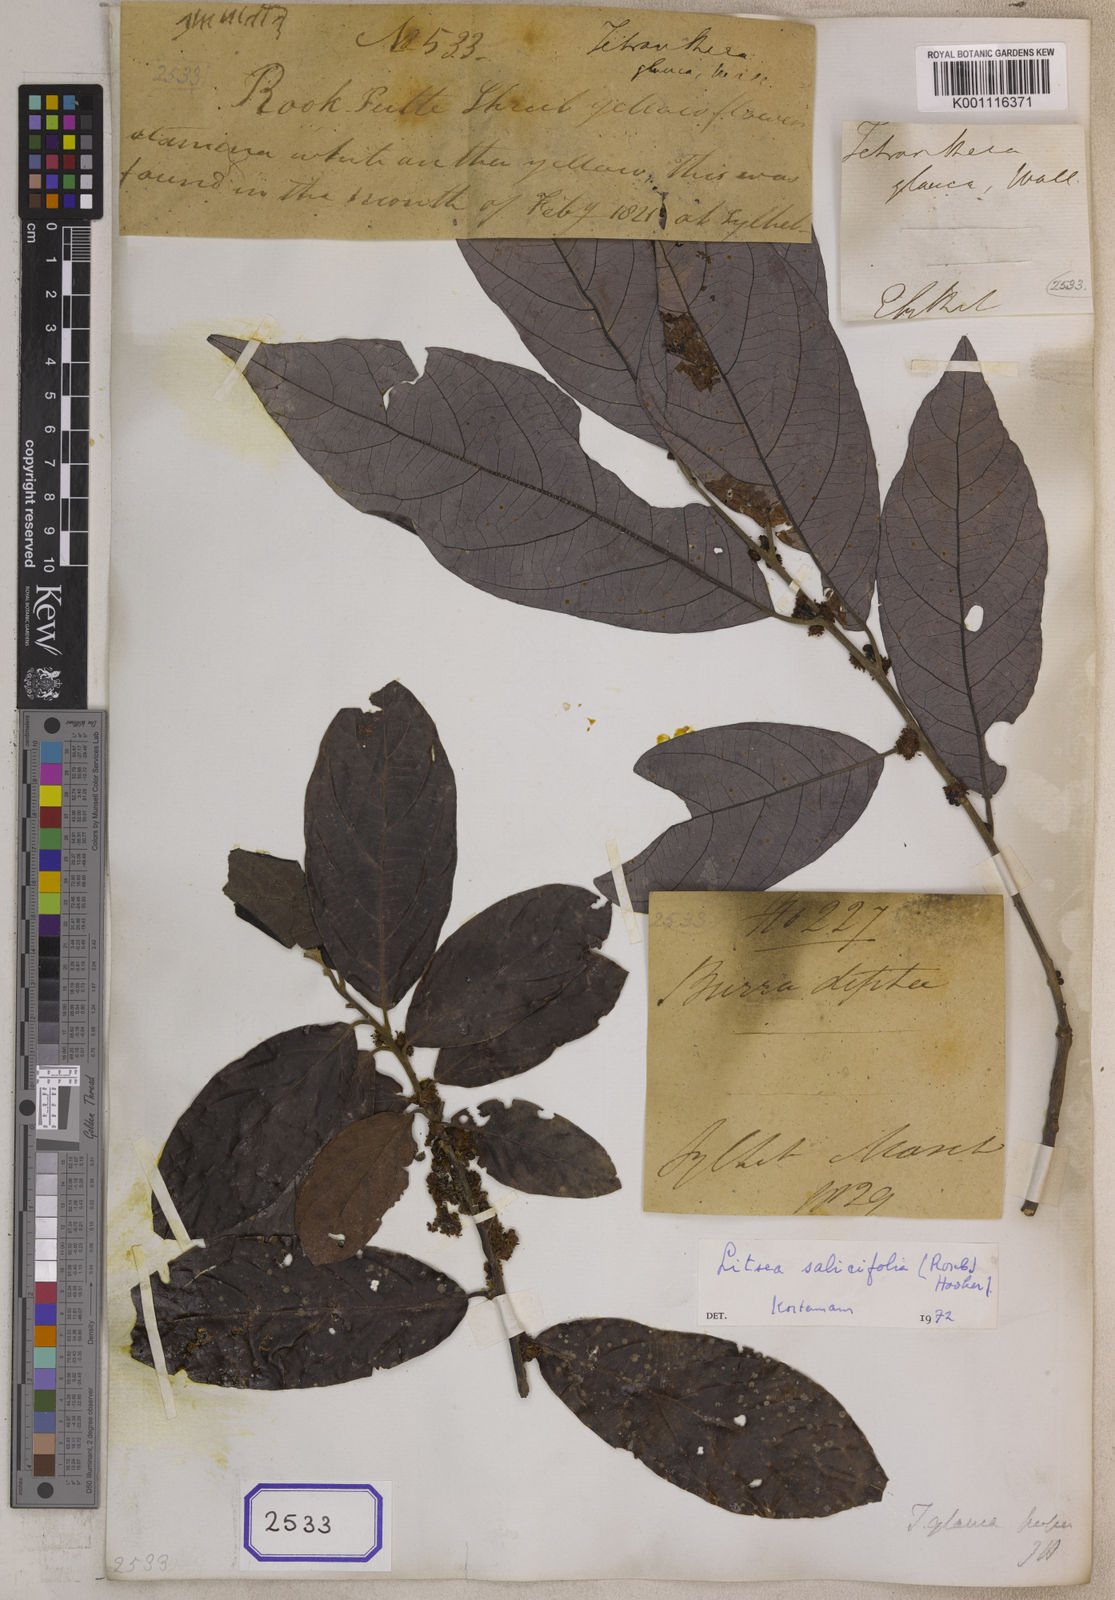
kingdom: Plantae
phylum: Tracheophyta
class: Magnoliopsida
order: Laurales
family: Lauraceae
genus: Litsea
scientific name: Litsea
